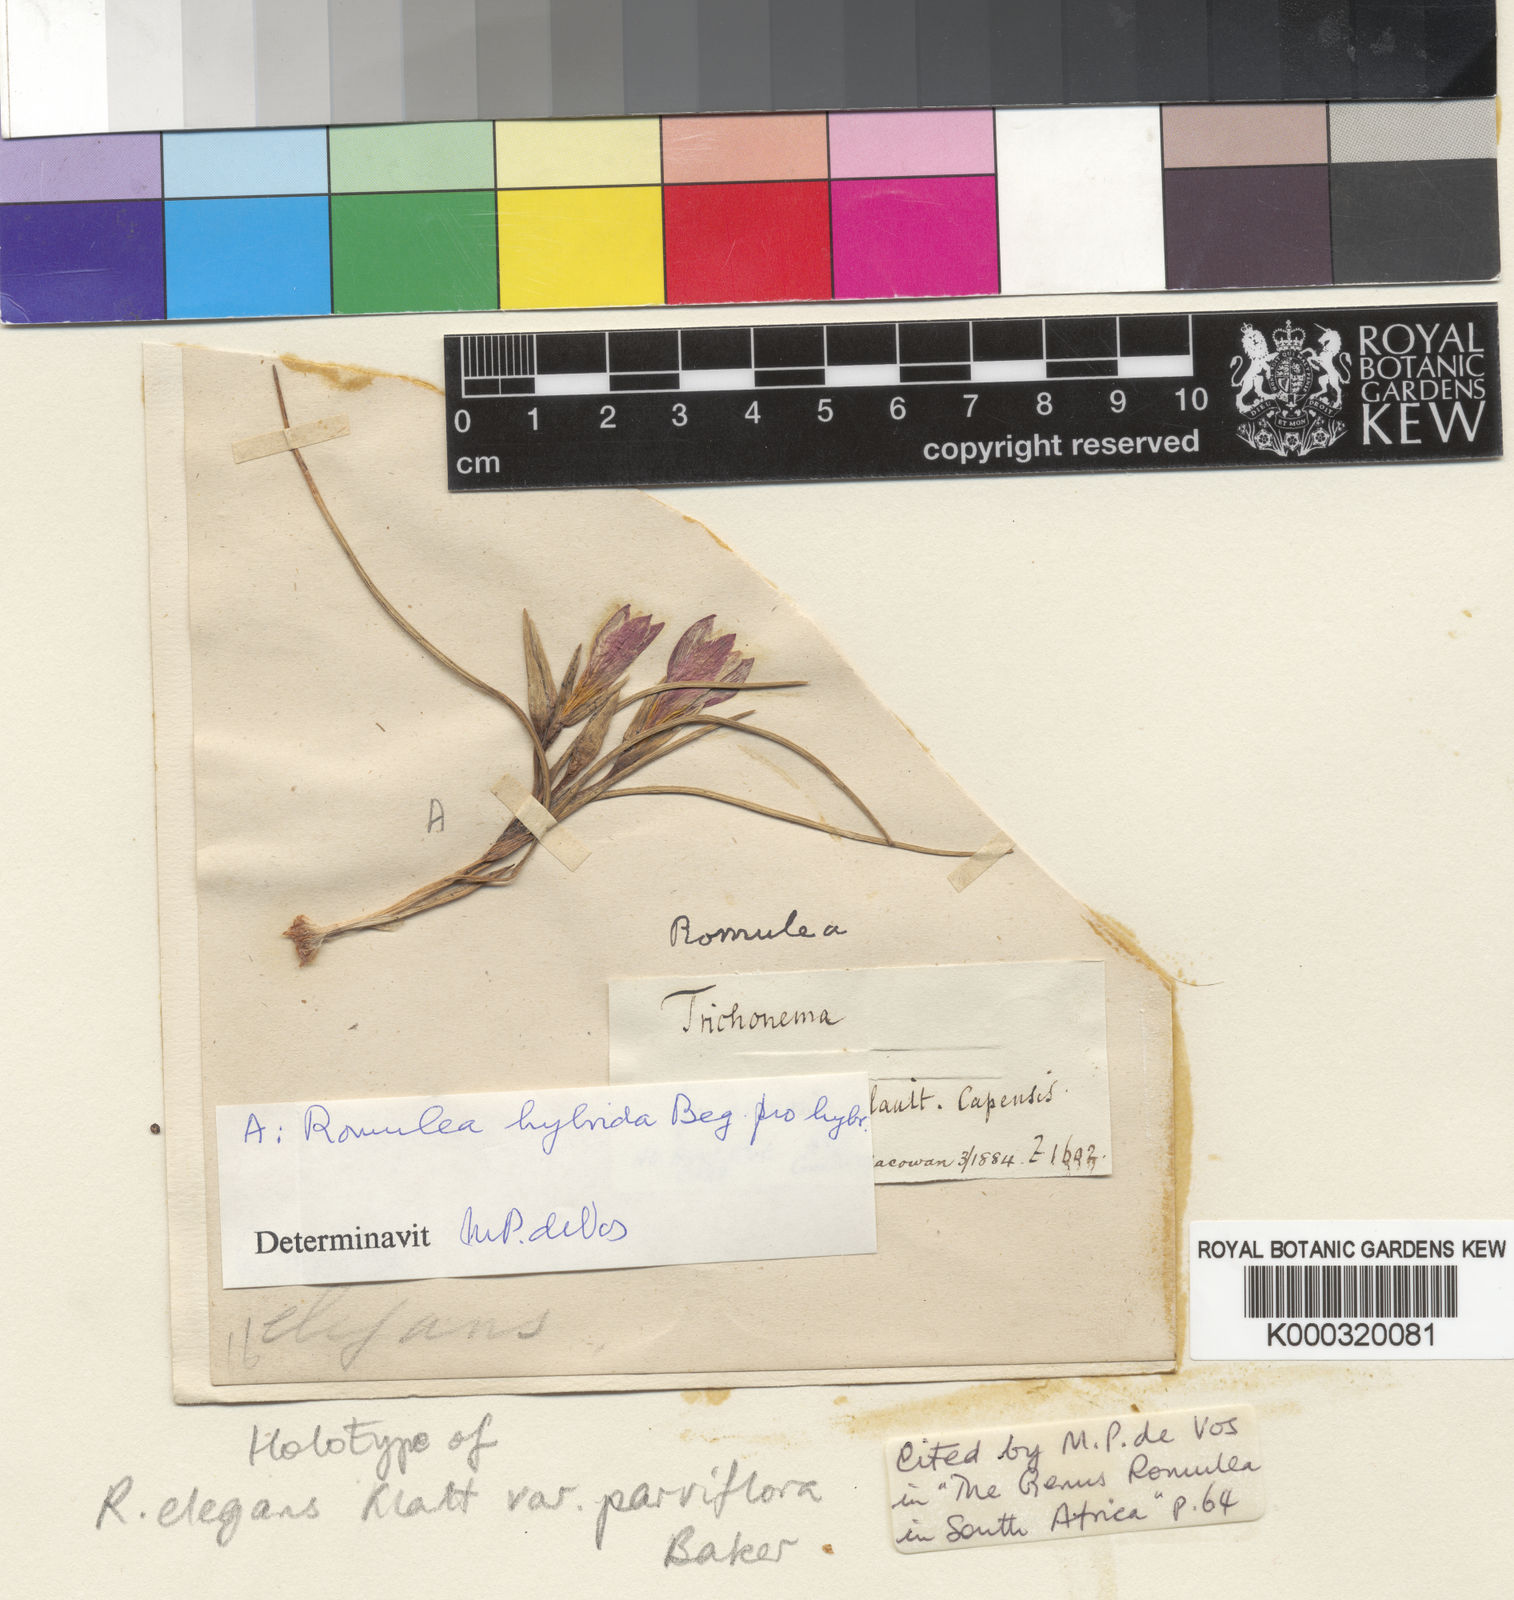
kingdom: Plantae
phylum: Tracheophyta
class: Liliopsida
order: Asparagales
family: Iridaceae
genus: Romulea
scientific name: Romulea
